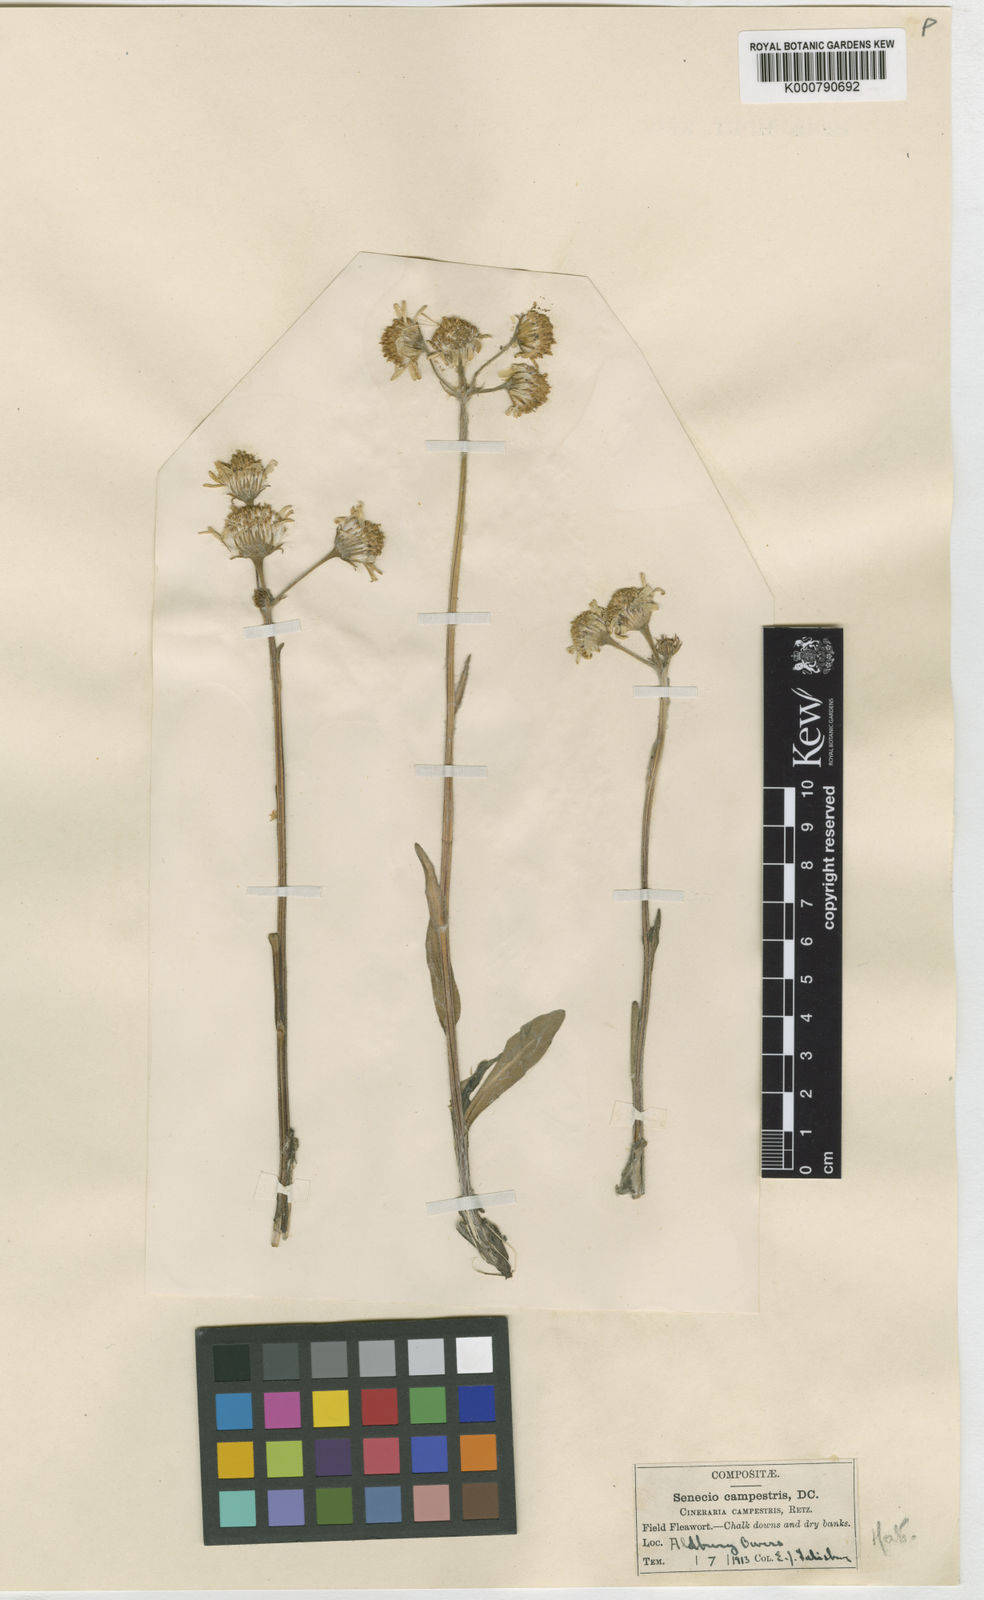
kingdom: Plantae
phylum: Tracheophyta
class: Magnoliopsida
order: Asterales
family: Asteraceae
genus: Tephroseris
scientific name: Tephroseris integrifolia
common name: Field fleawort
